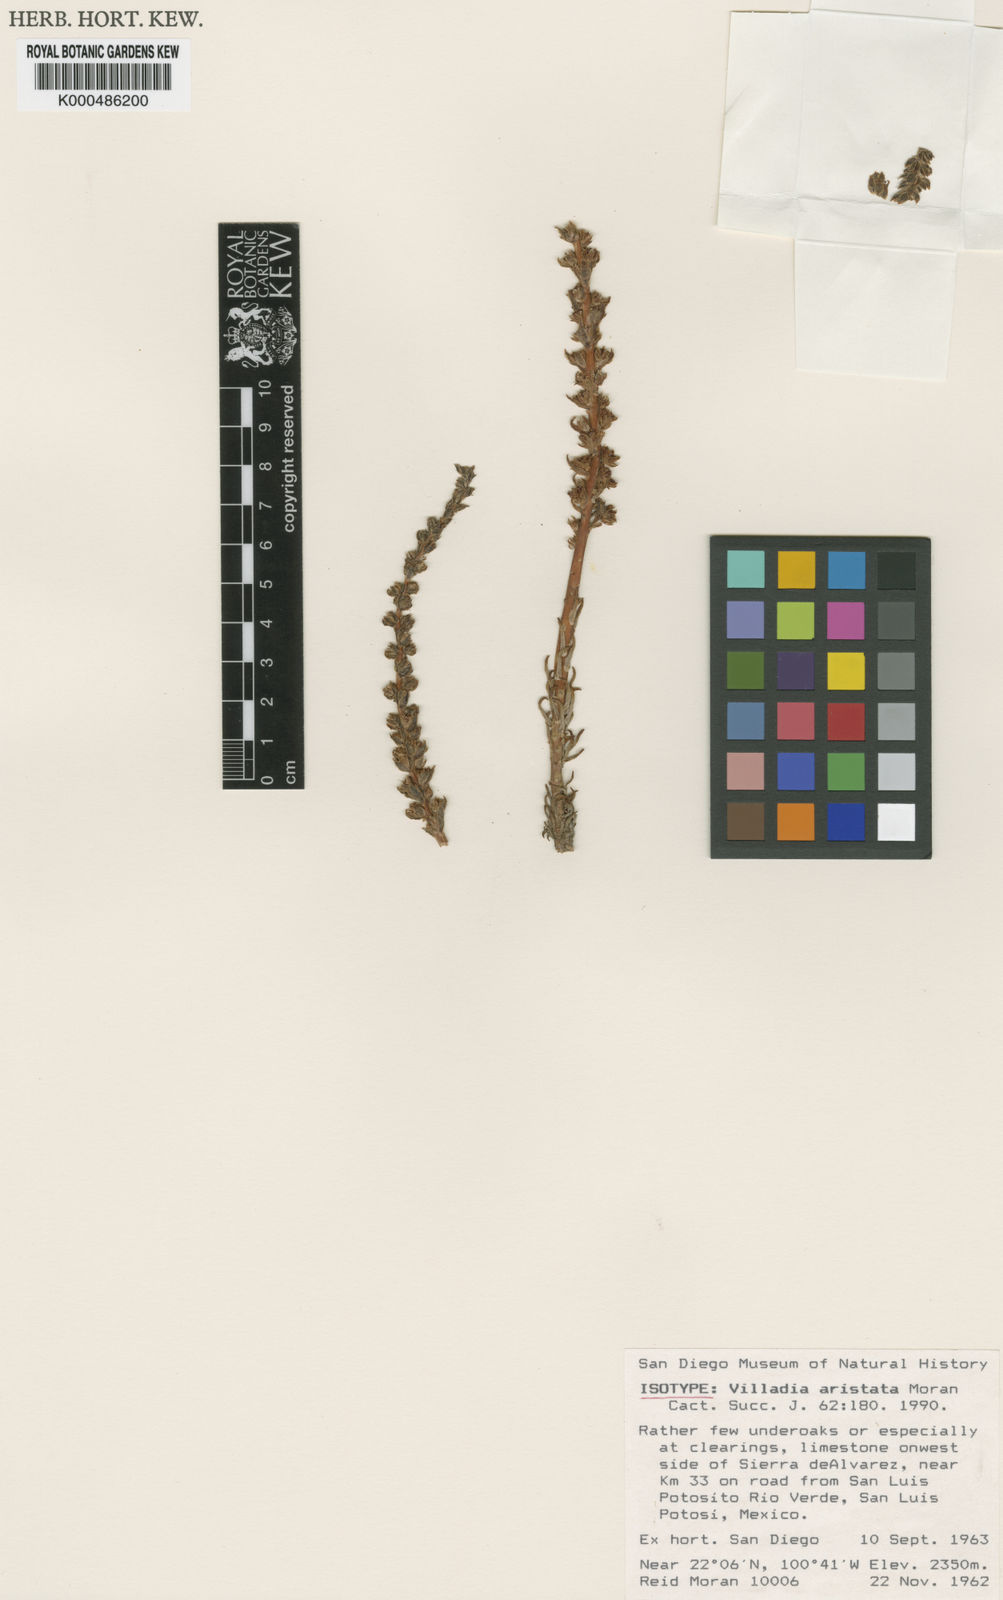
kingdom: Plantae
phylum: Tracheophyta
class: Magnoliopsida
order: Saxifragales
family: Crassulaceae
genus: Villadia
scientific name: Villadia aristata
